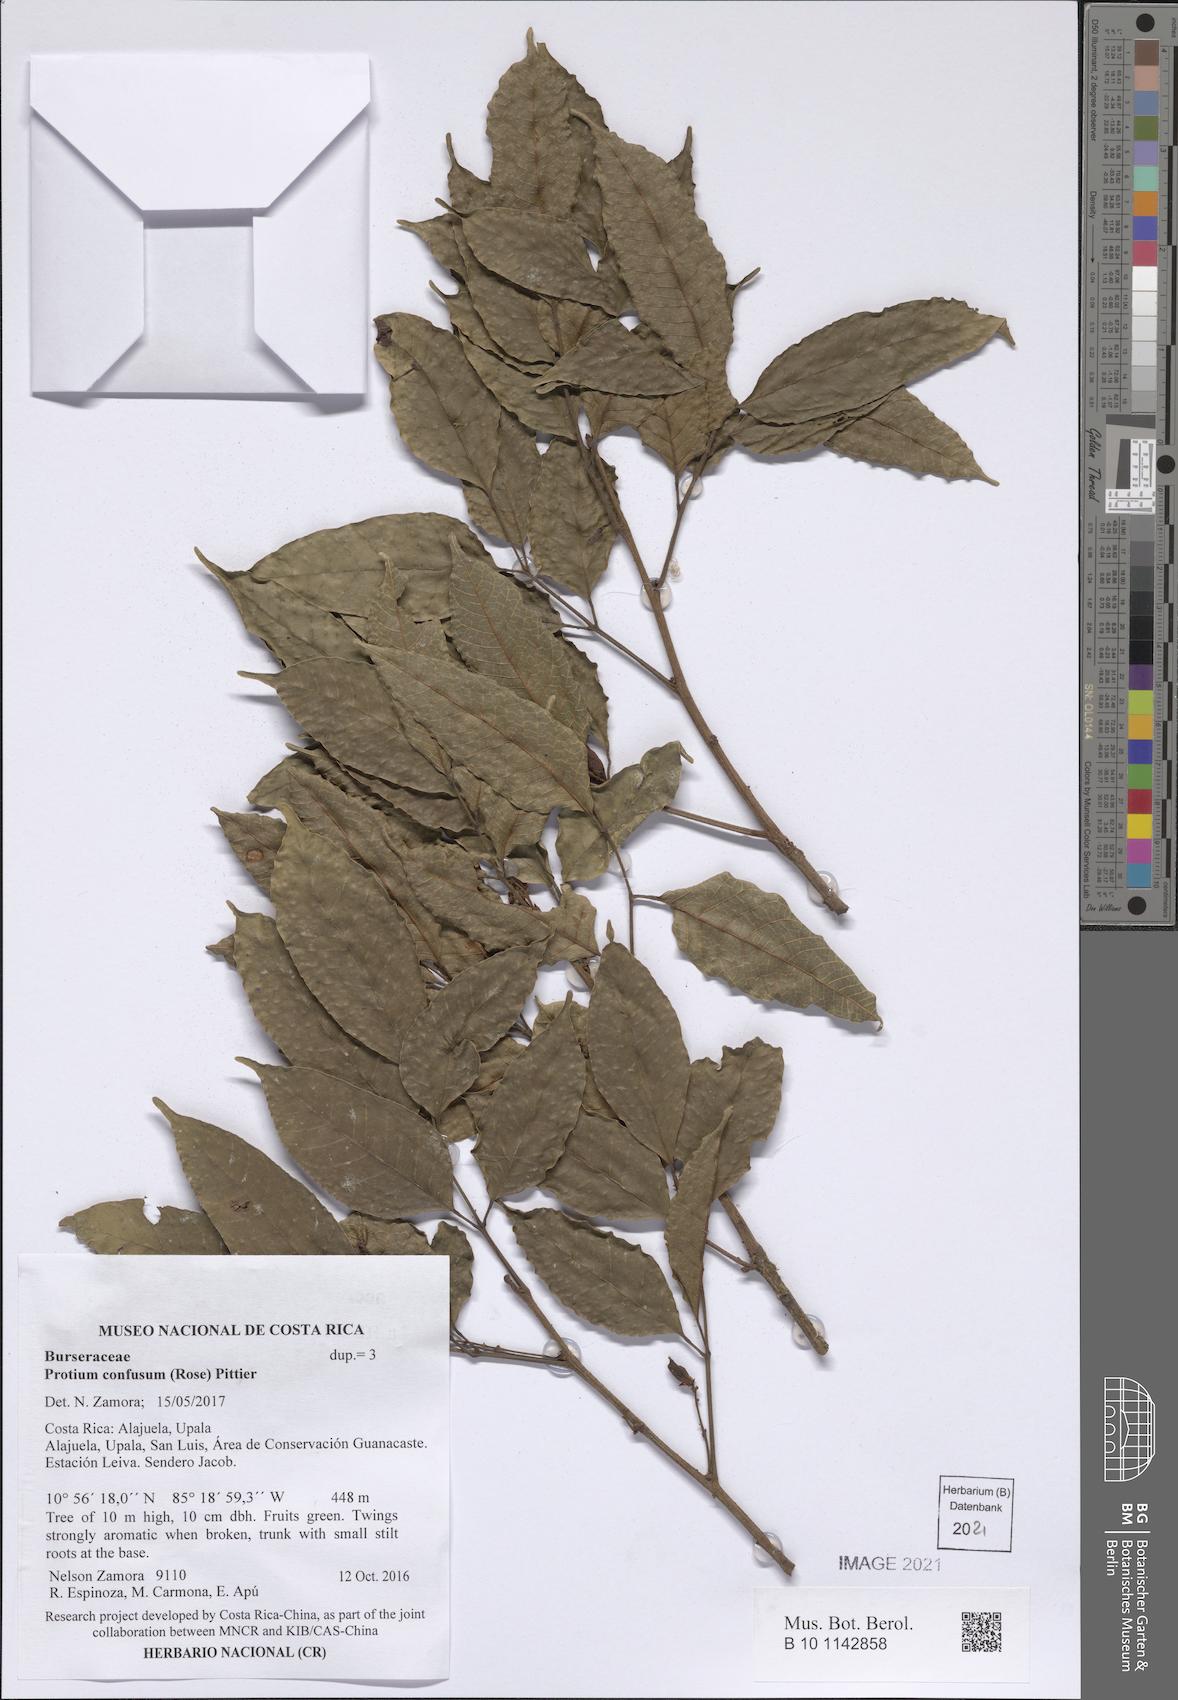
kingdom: Plantae
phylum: Tracheophyta
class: Magnoliopsida
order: Sapindales
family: Burseraceae
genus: Protium
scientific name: Protium confusum
